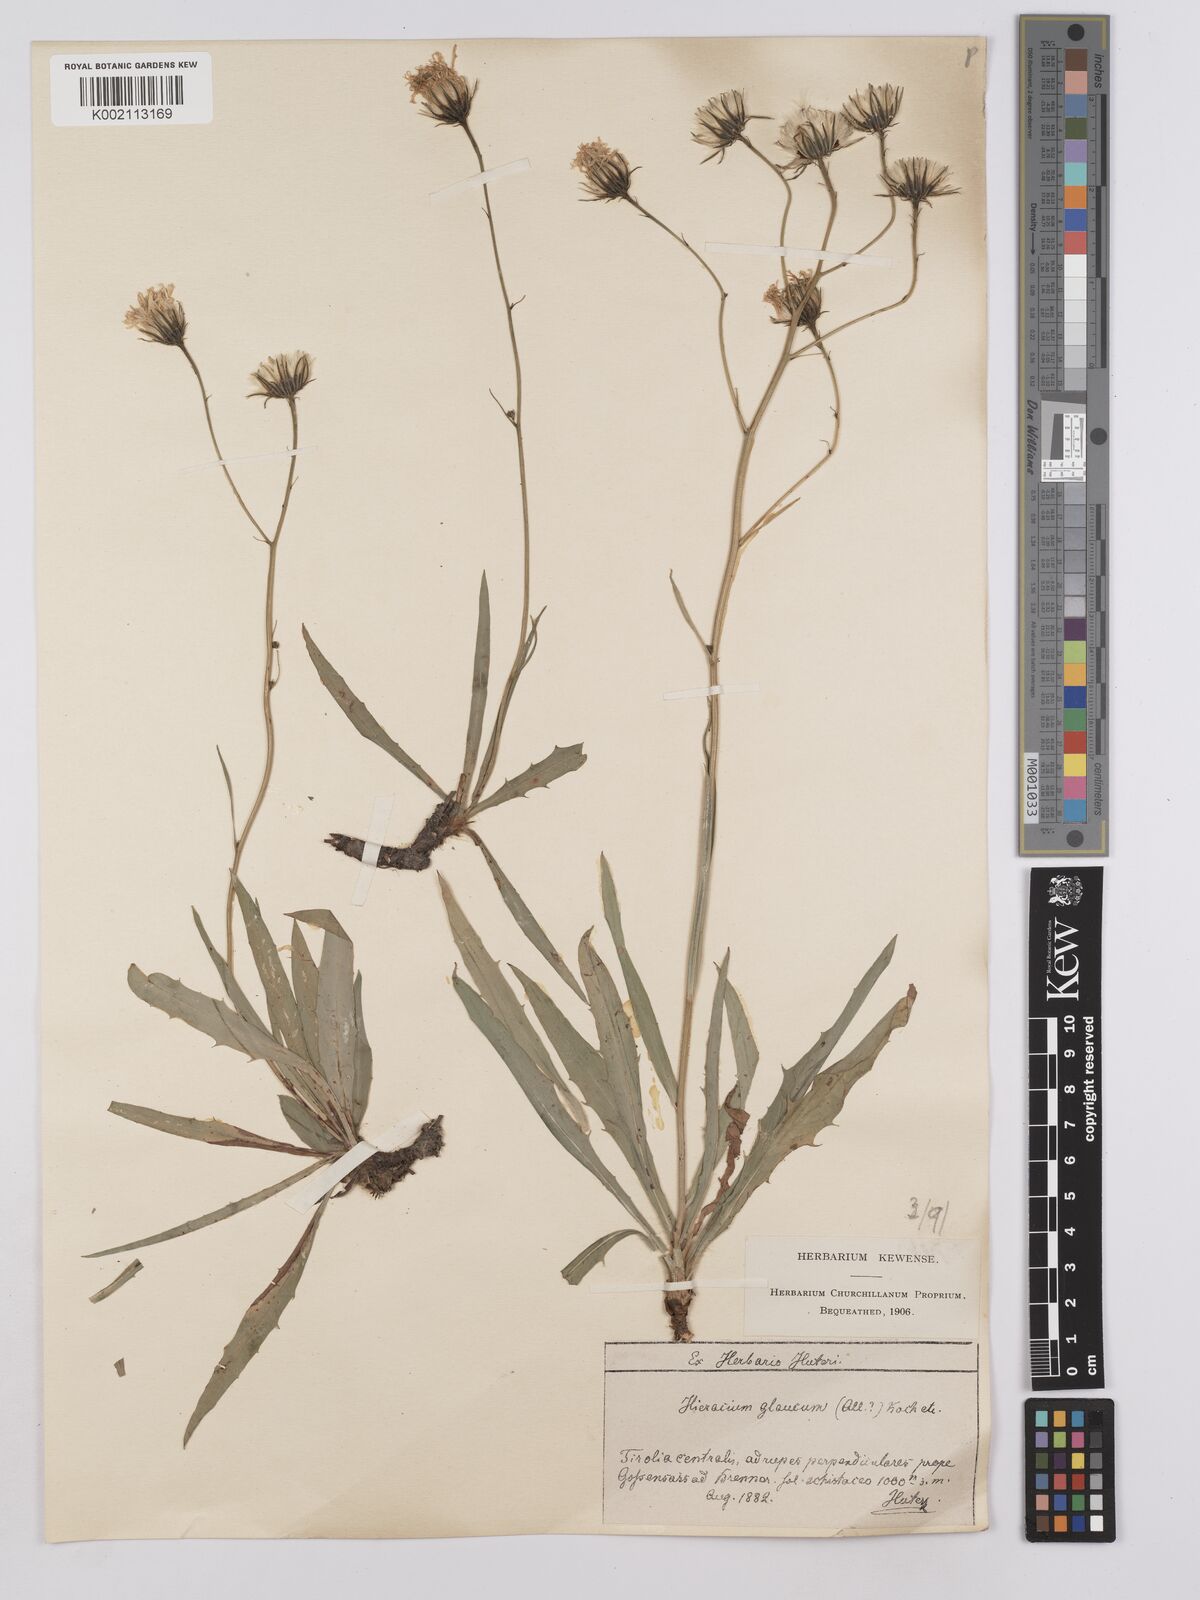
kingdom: Plantae
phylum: Tracheophyta
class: Magnoliopsida
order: Asterales
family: Asteraceae
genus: Hieracium
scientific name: Hieracium glaucum
